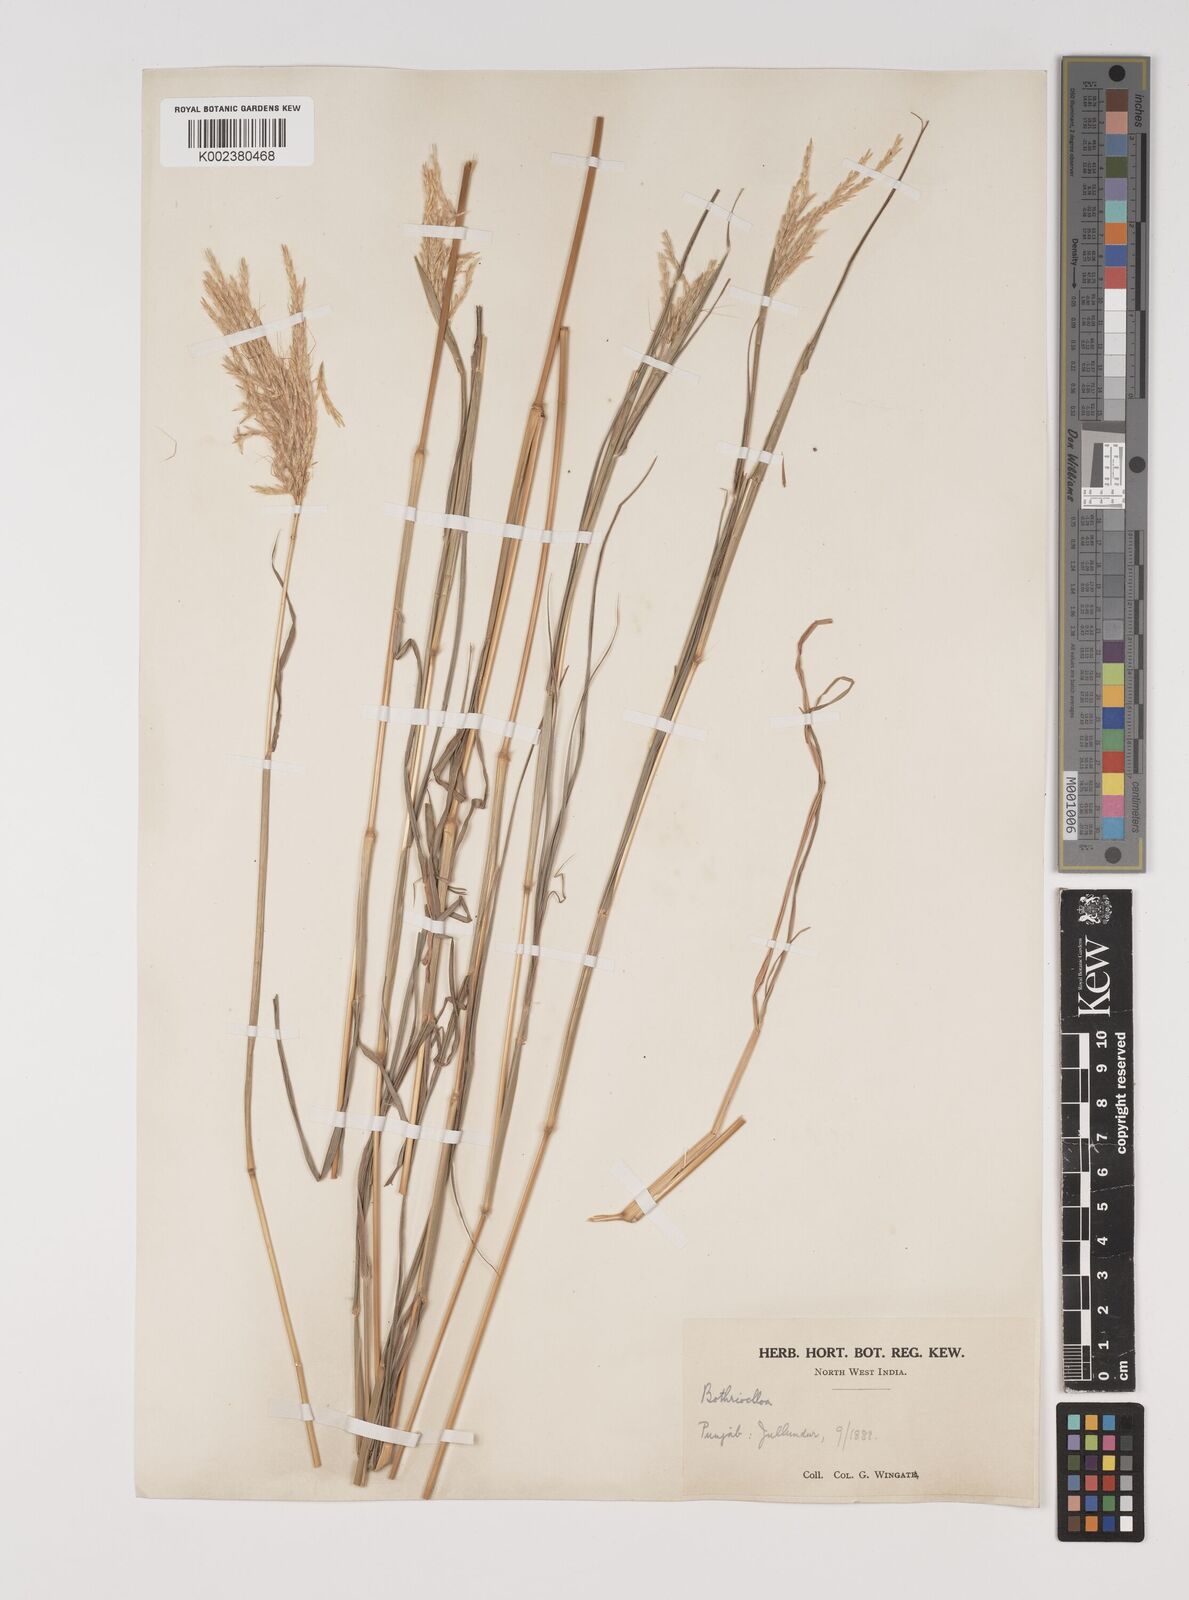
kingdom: Plantae
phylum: Tracheophyta
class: Liliopsida
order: Poales
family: Poaceae
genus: Bothriochloa
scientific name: Bothriochloa insculpta
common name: Creeping-bluegrass
